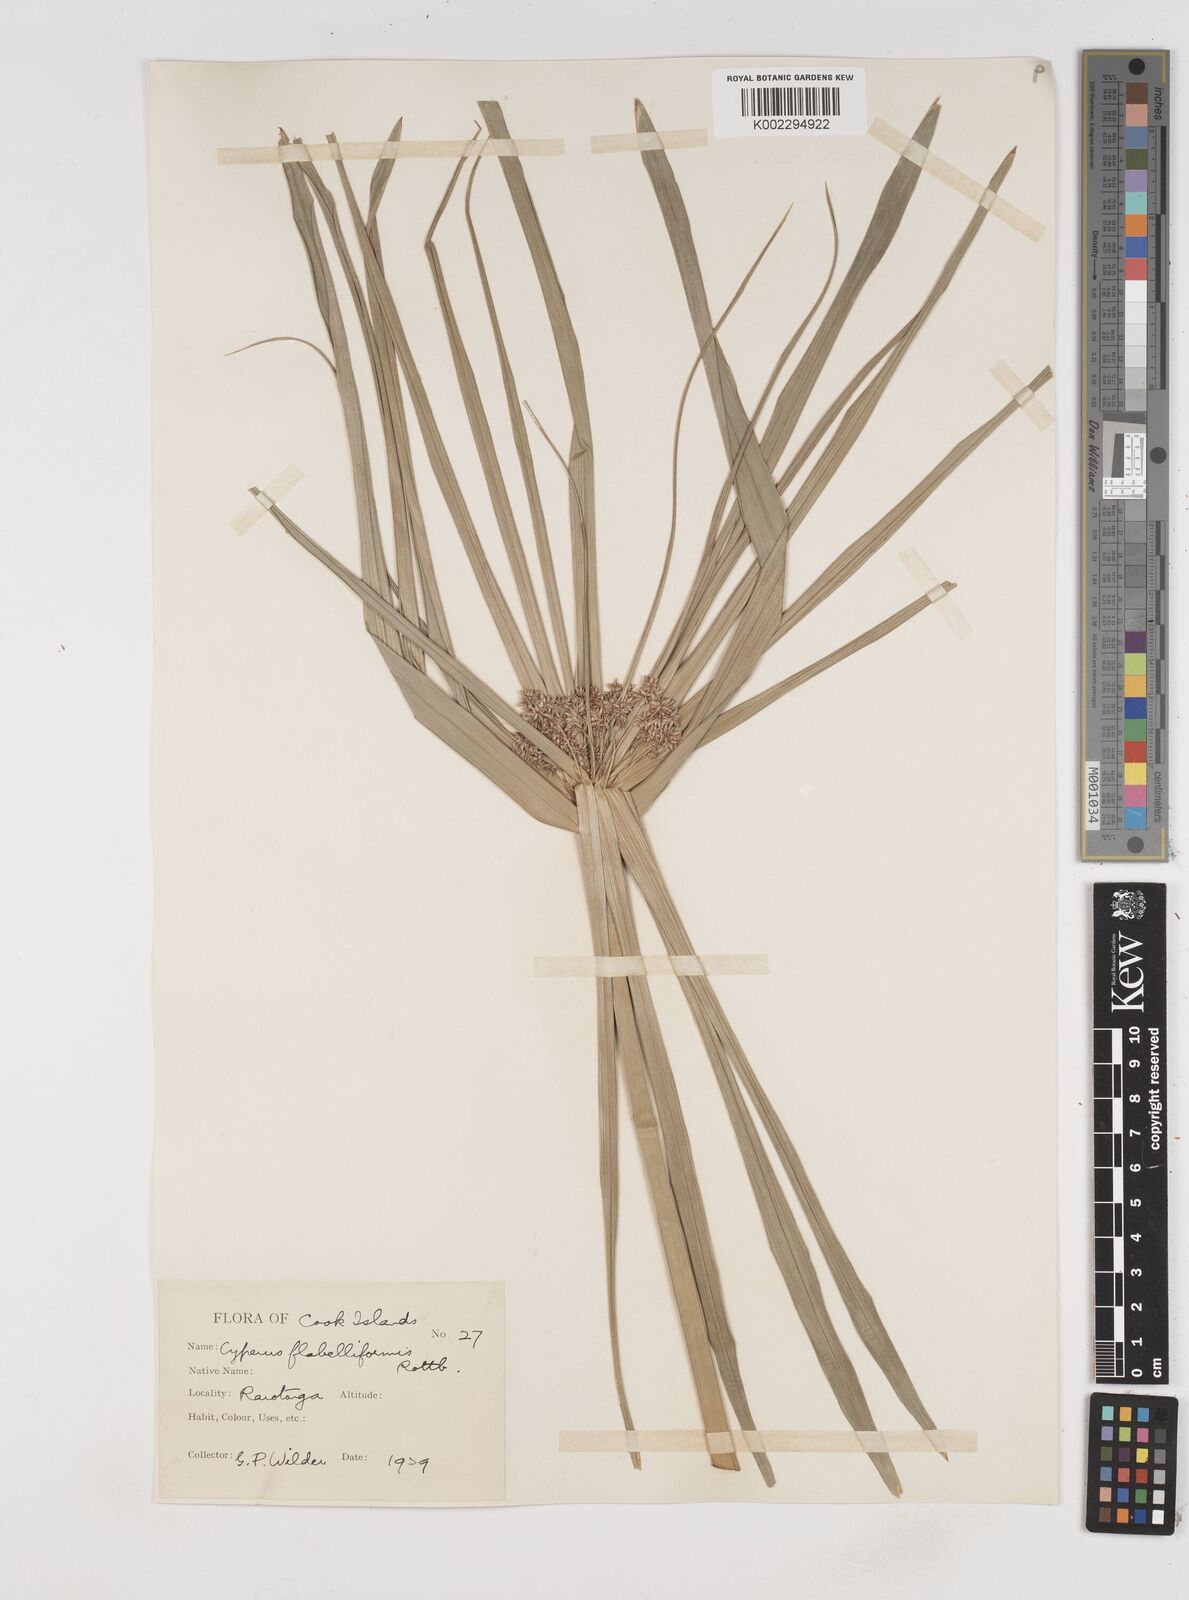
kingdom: Plantae
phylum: Tracheophyta
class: Liliopsida
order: Poales
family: Cyperaceae
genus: Cyperus
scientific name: Cyperus alternifolius
